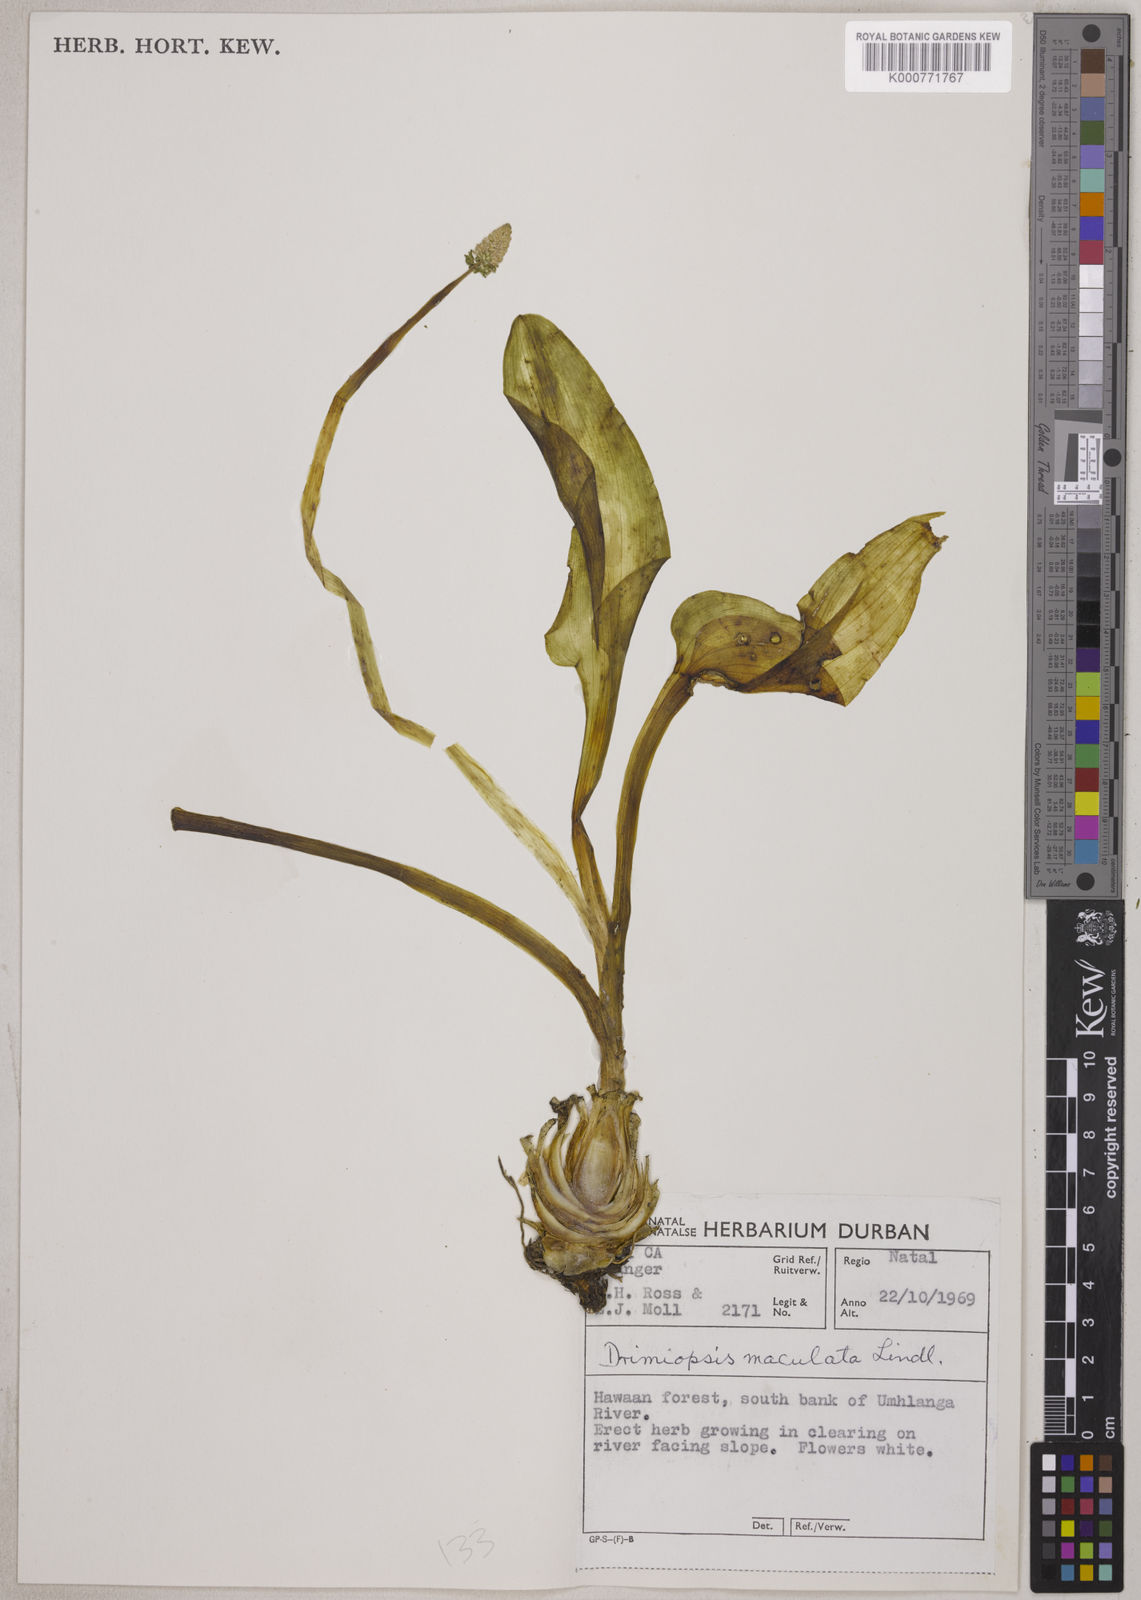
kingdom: Plantae
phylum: Tracheophyta
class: Liliopsida
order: Asparagales
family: Asparagaceae
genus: Drimiopsis
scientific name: Drimiopsis maculata
